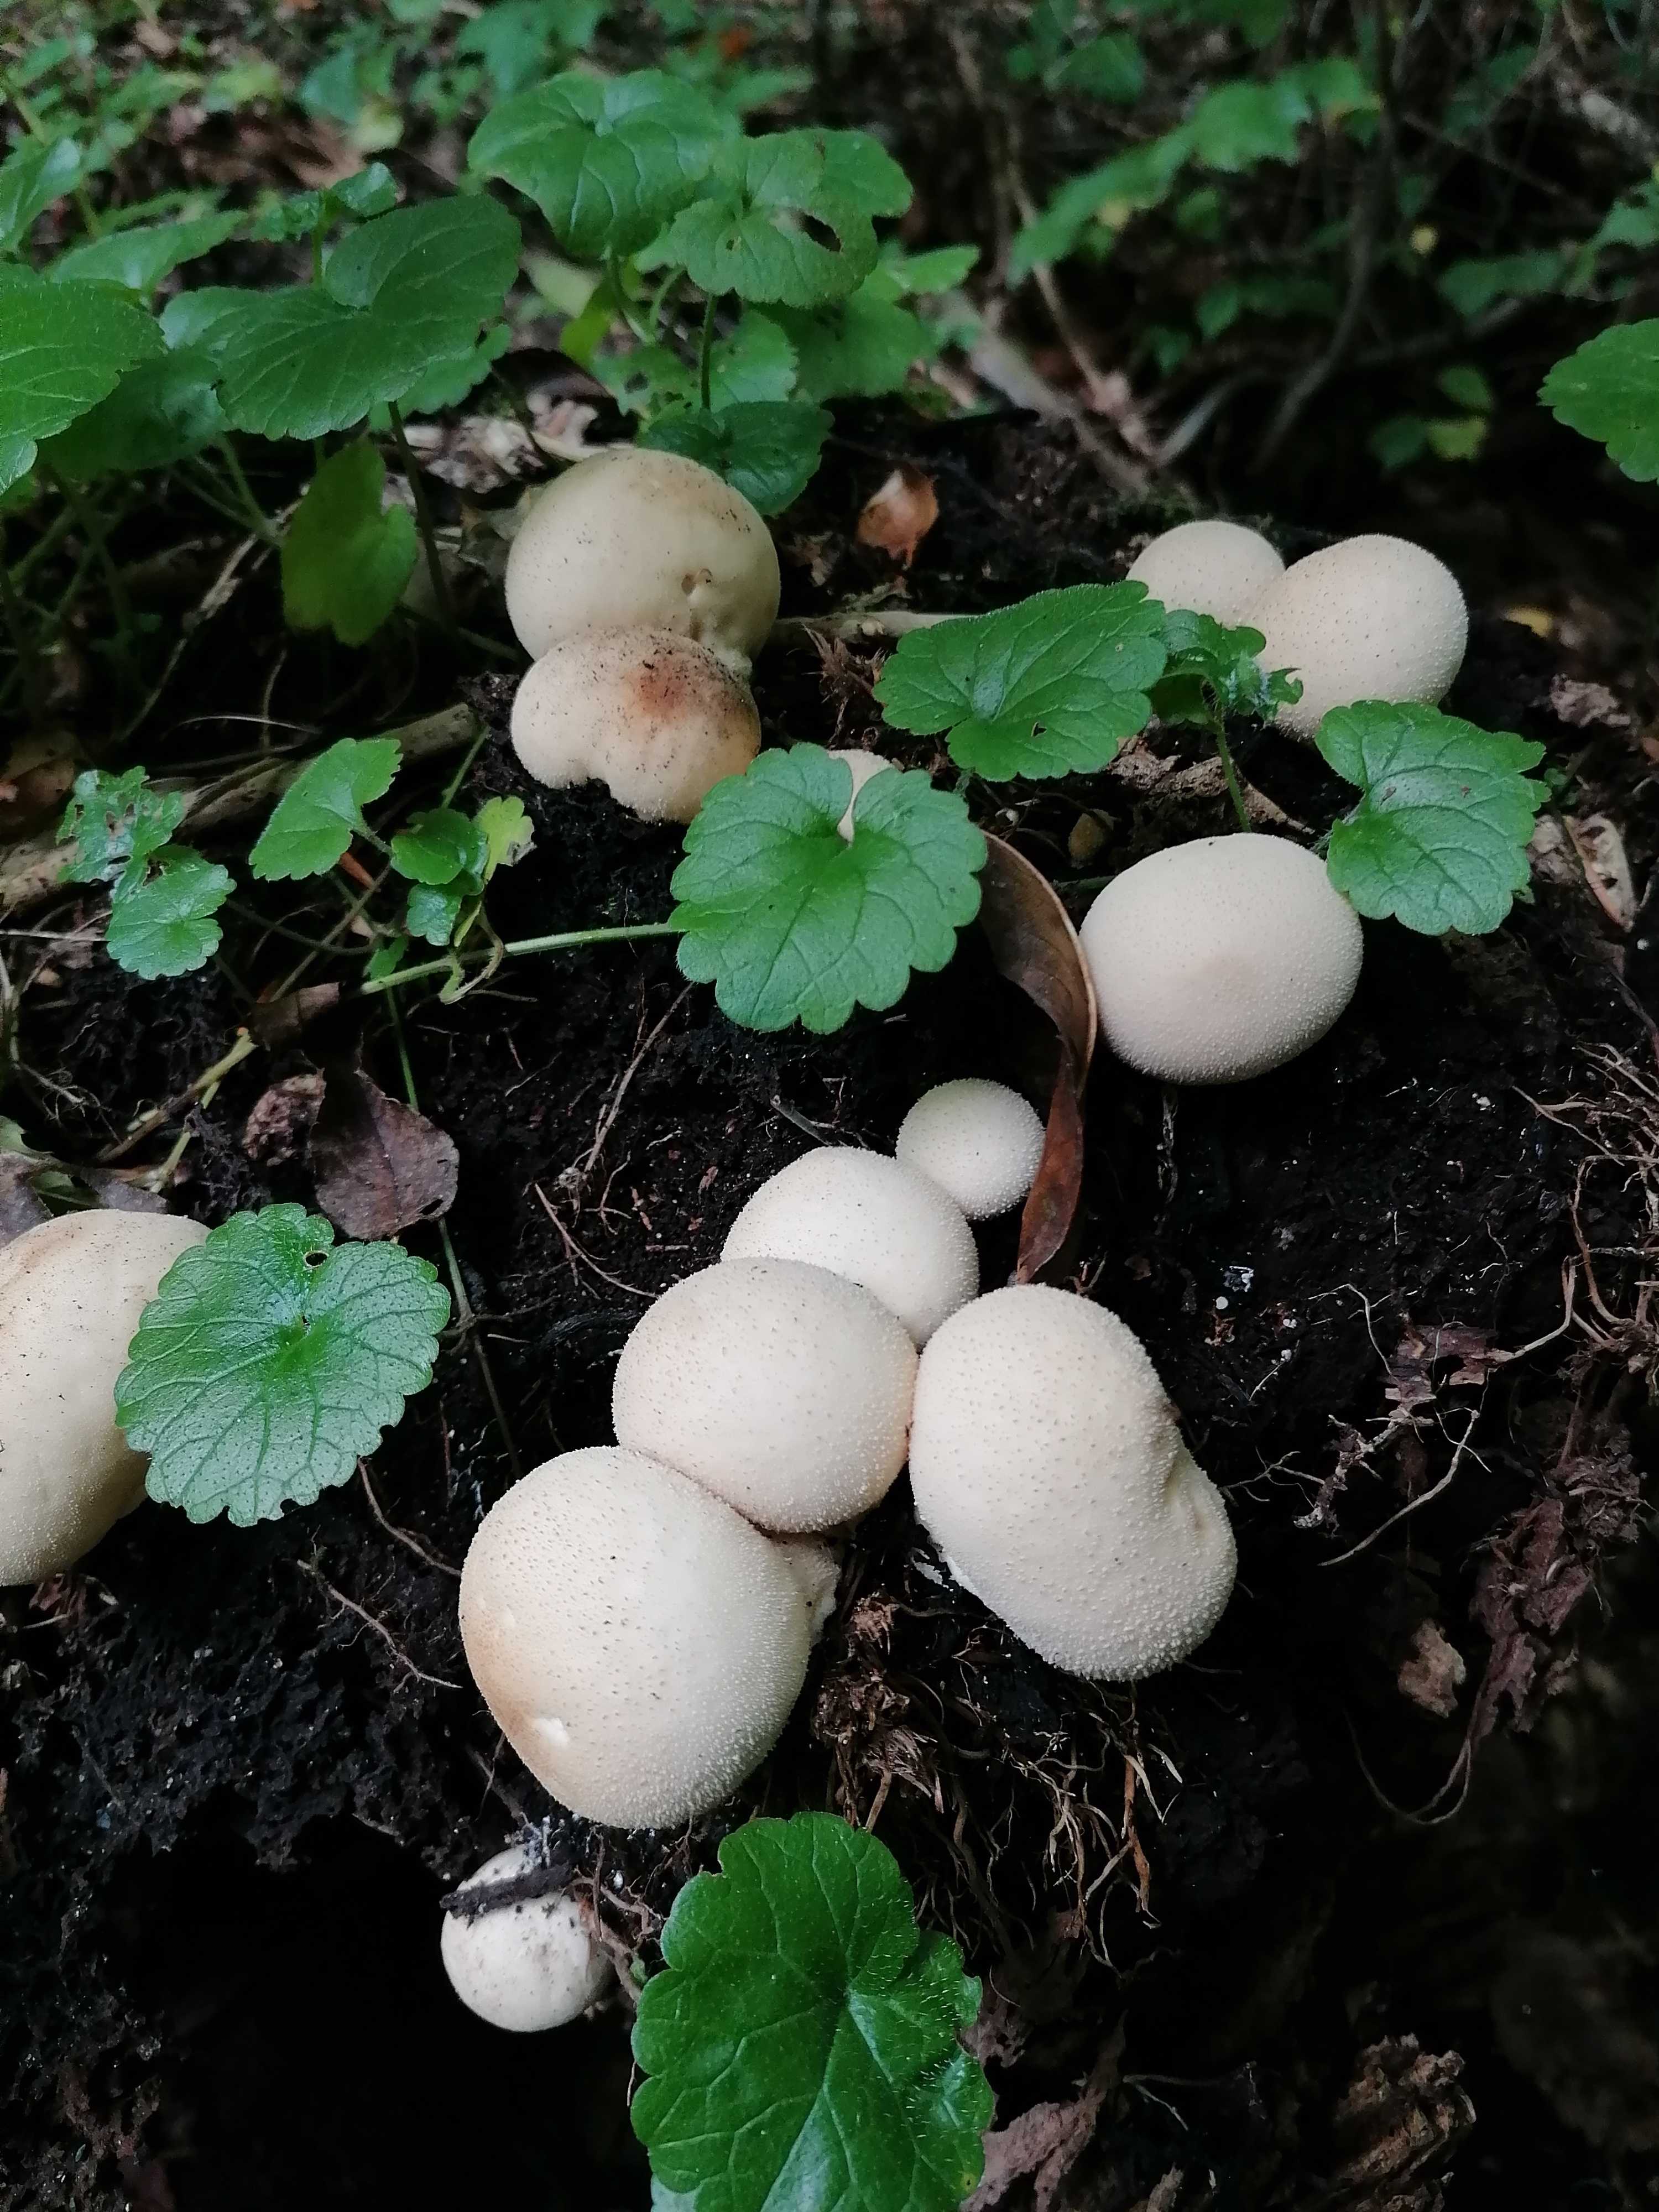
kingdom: Fungi
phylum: Basidiomycota
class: Agaricomycetes
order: Agaricales
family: Lycoperdaceae
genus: Apioperdon
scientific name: Apioperdon pyriforme
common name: pære-støvbold
